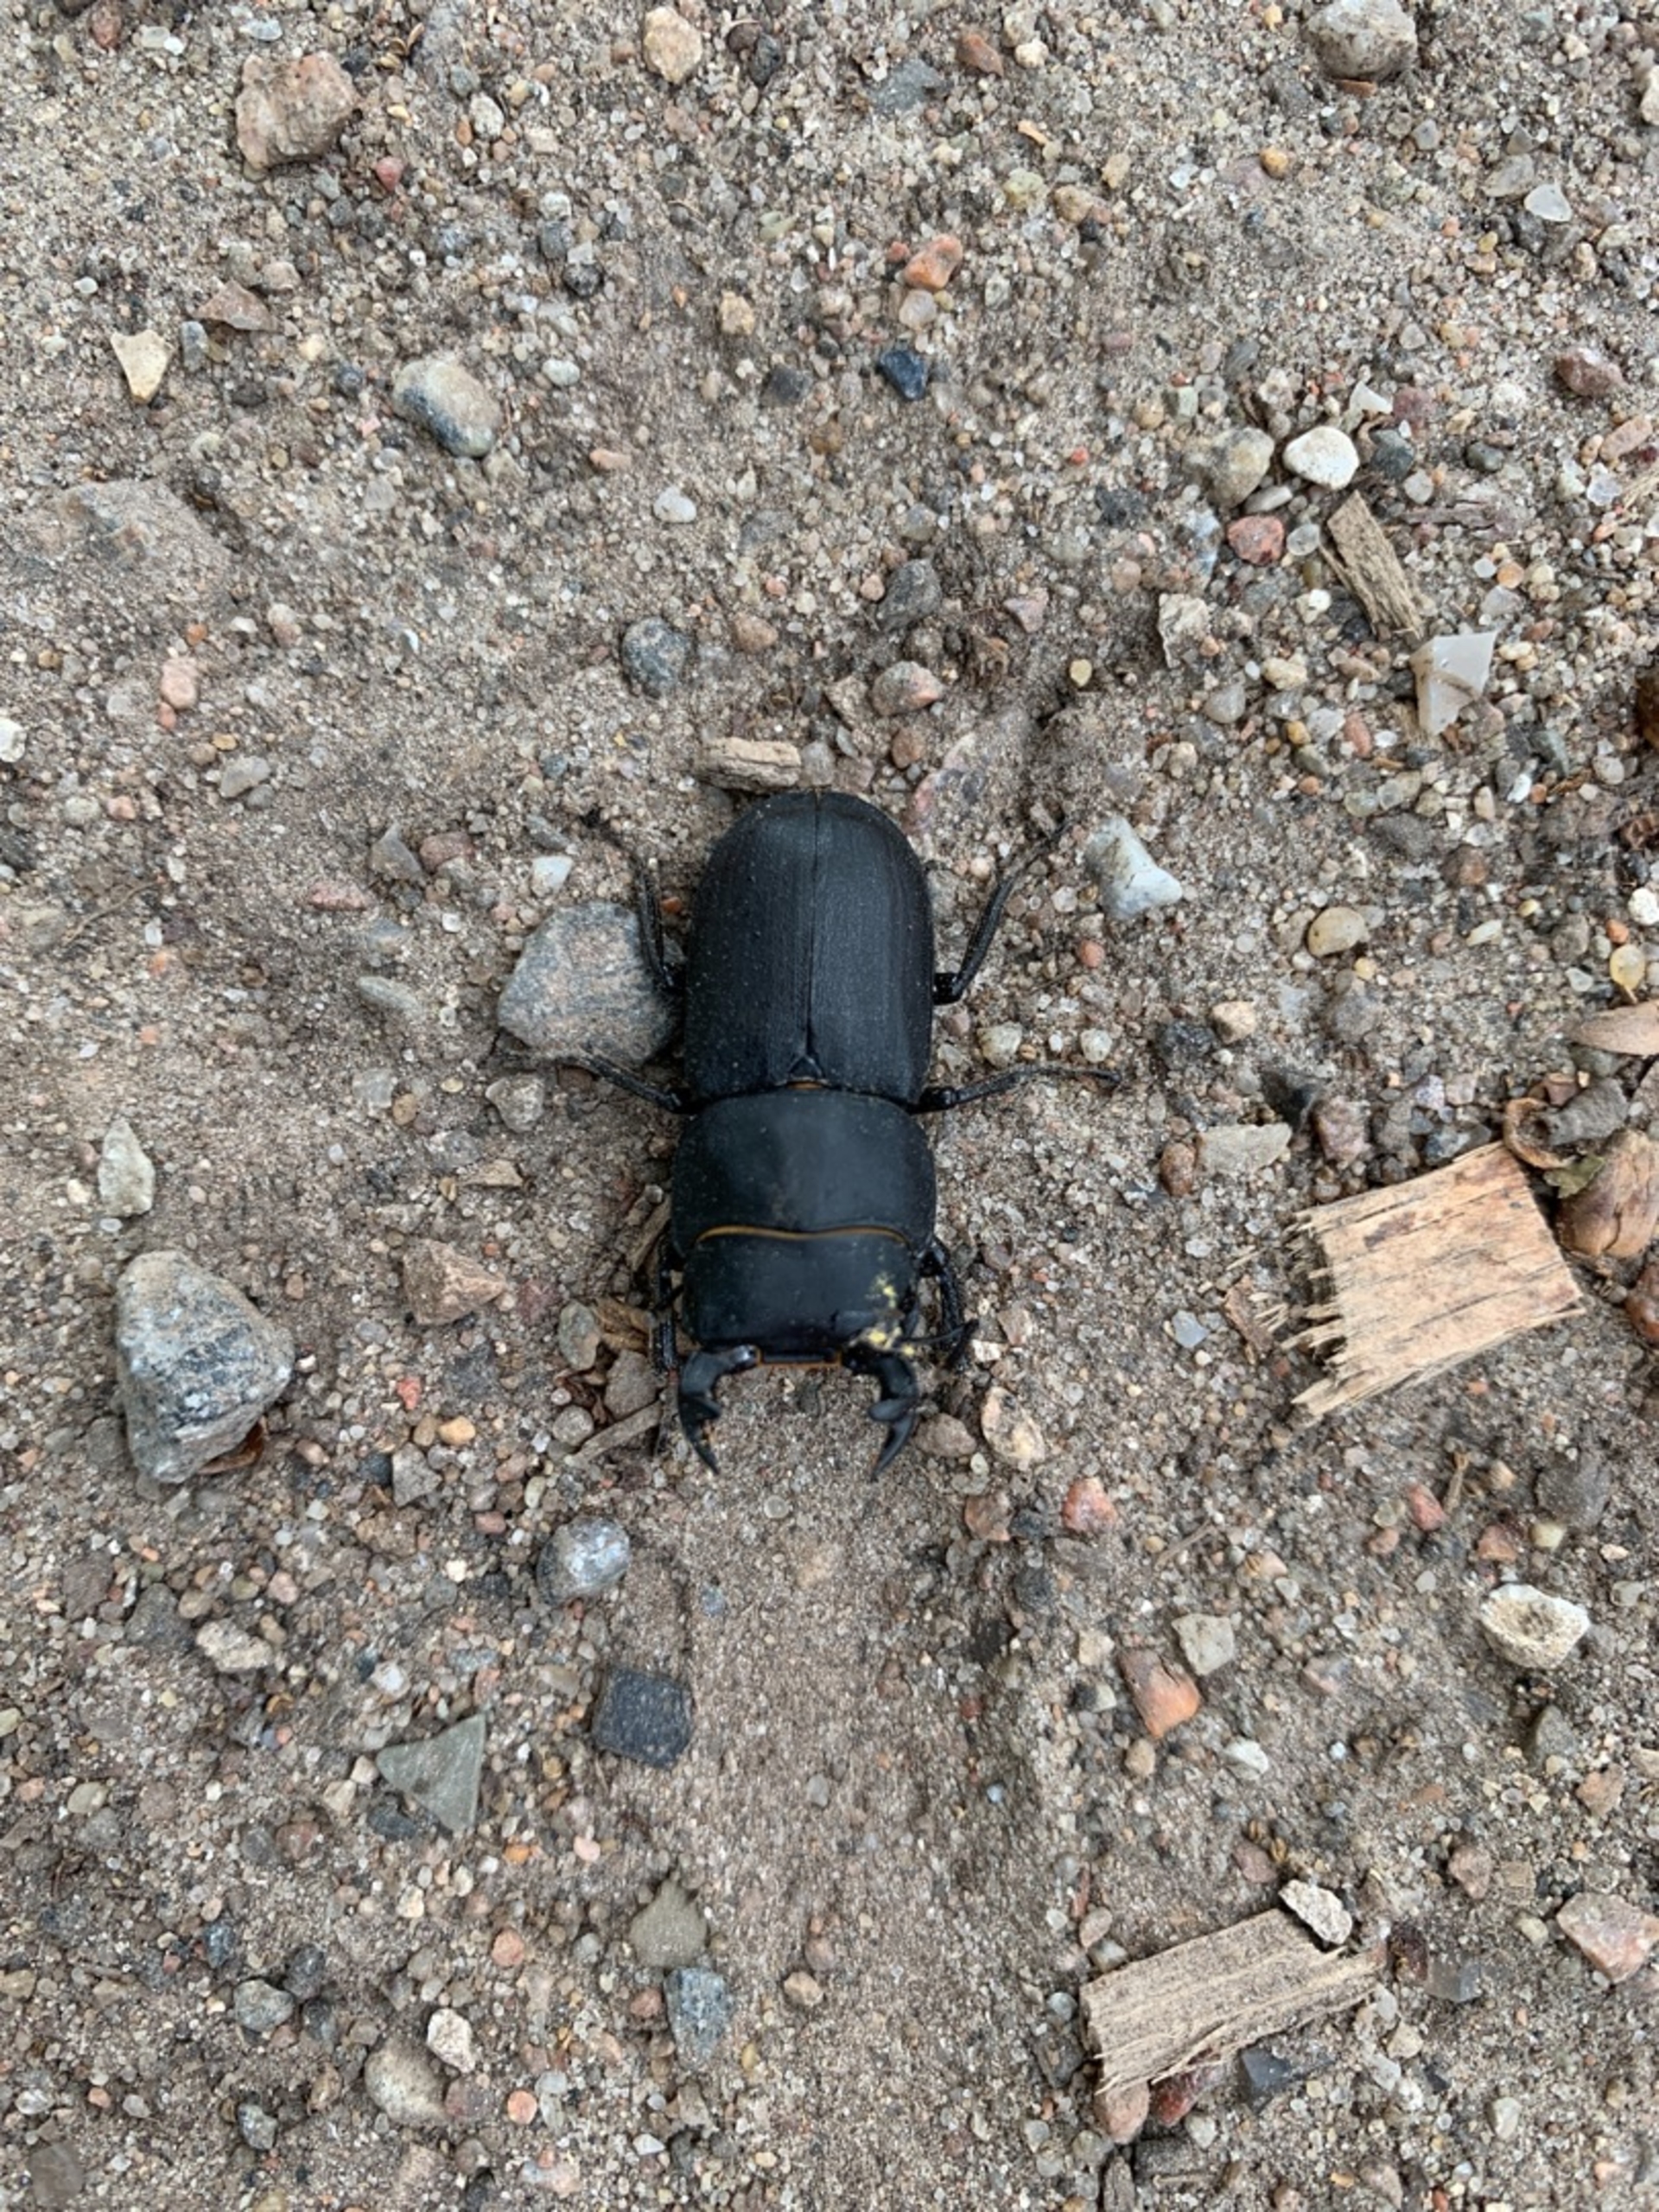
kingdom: Animalia
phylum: Arthropoda
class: Insecta
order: Coleoptera
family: Lucanidae
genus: Dorcus
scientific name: Dorcus parallelipipedus
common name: Bøghjort
